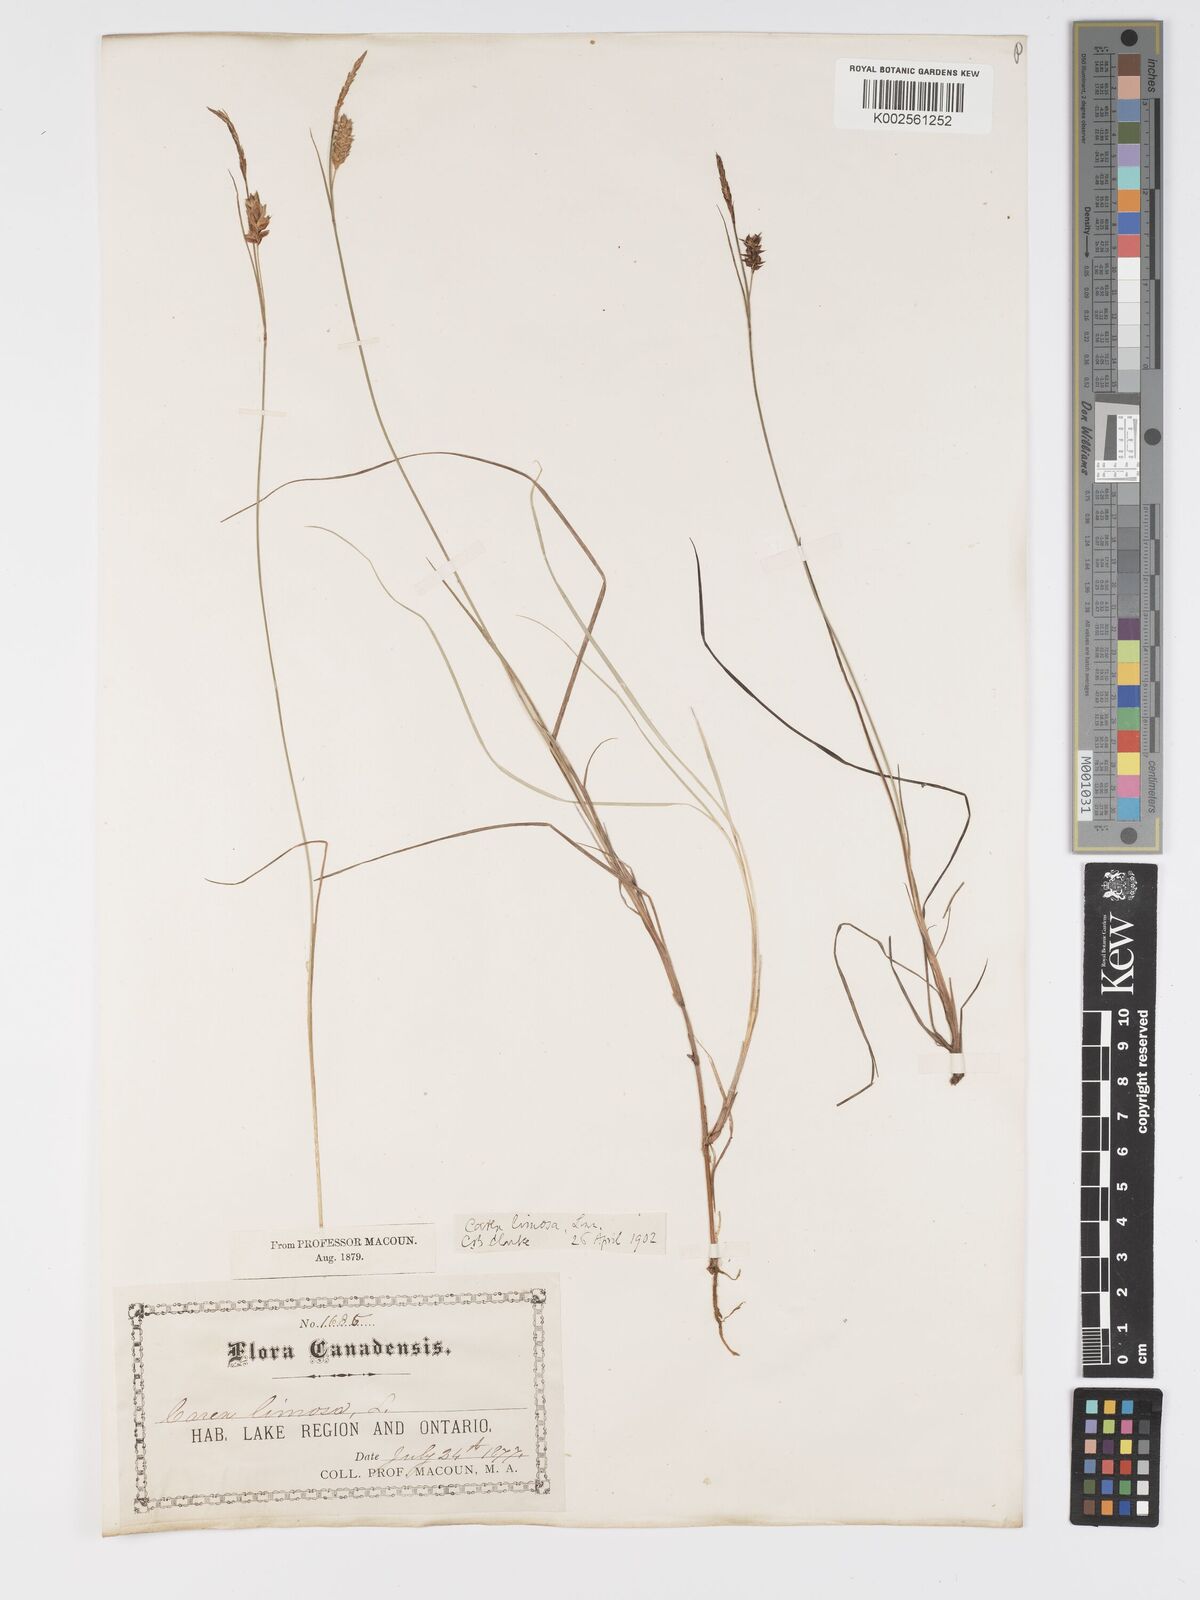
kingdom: Plantae
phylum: Tracheophyta
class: Liliopsida
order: Poales
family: Cyperaceae
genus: Carex
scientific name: Carex limosa
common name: Bog sedge
